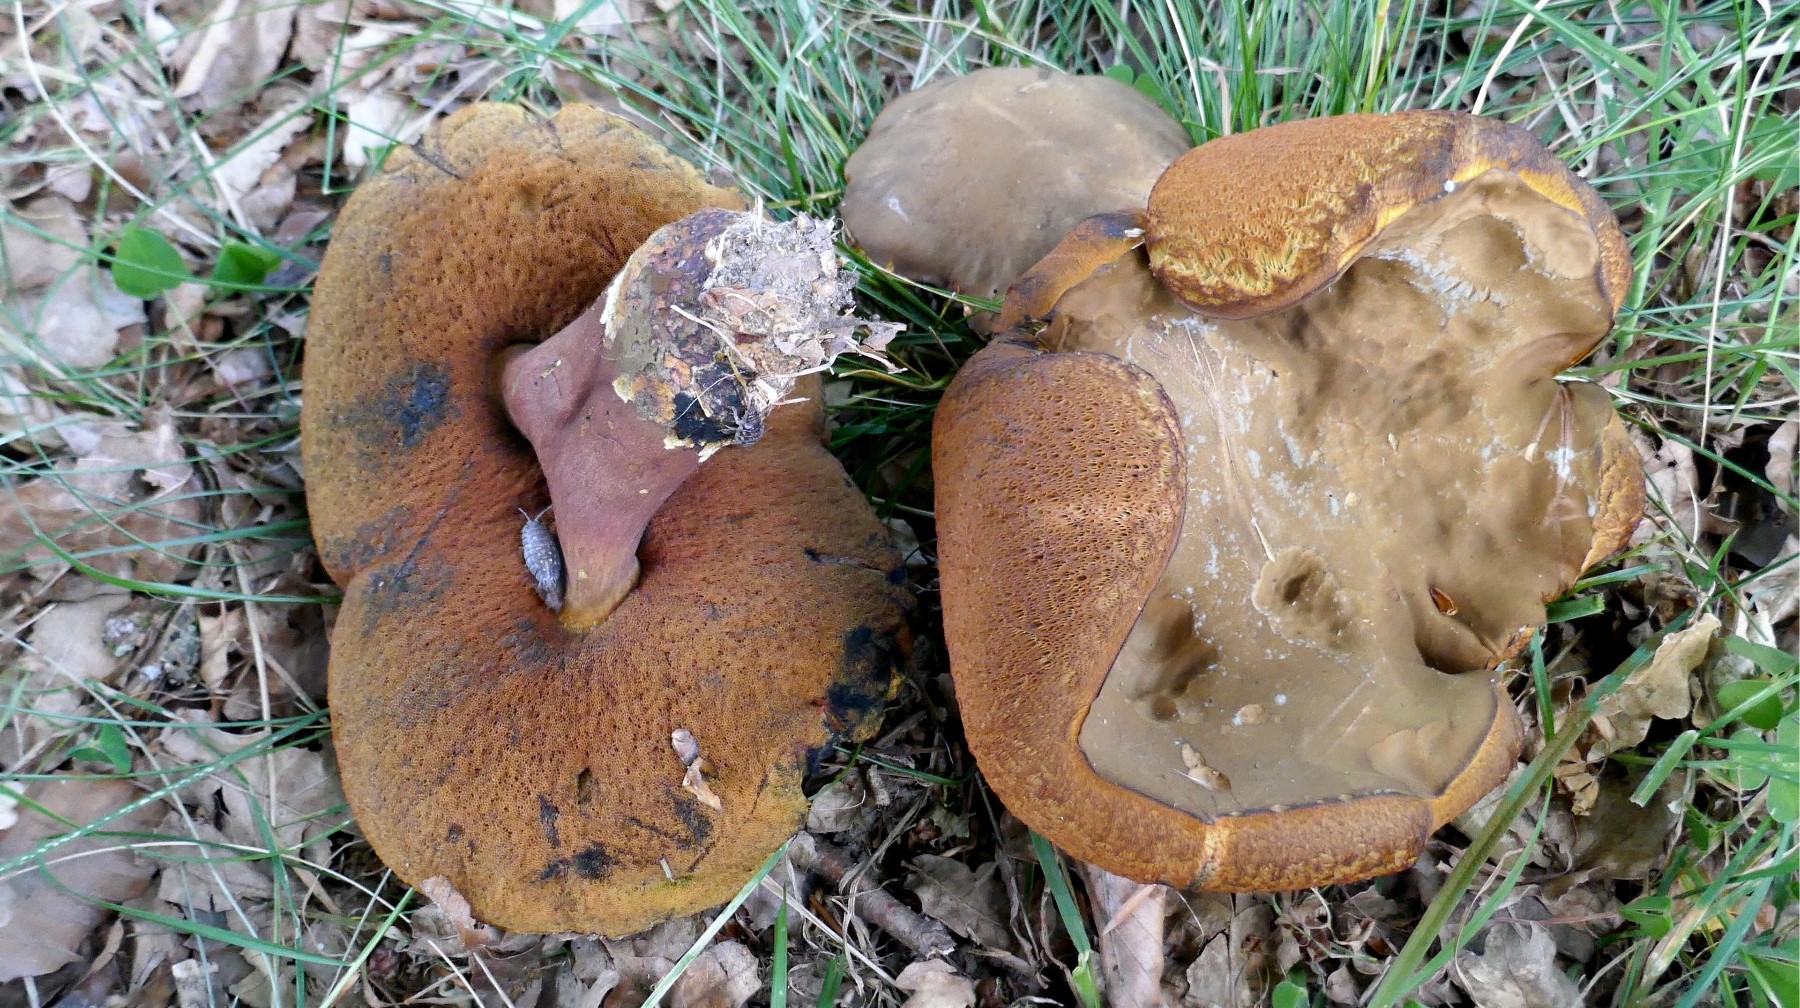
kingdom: Fungi
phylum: Basidiomycota
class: Agaricomycetes
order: Boletales
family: Boletaceae
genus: Neoboletus
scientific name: Neoboletus erythropus
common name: punktstokket indigorørhat
